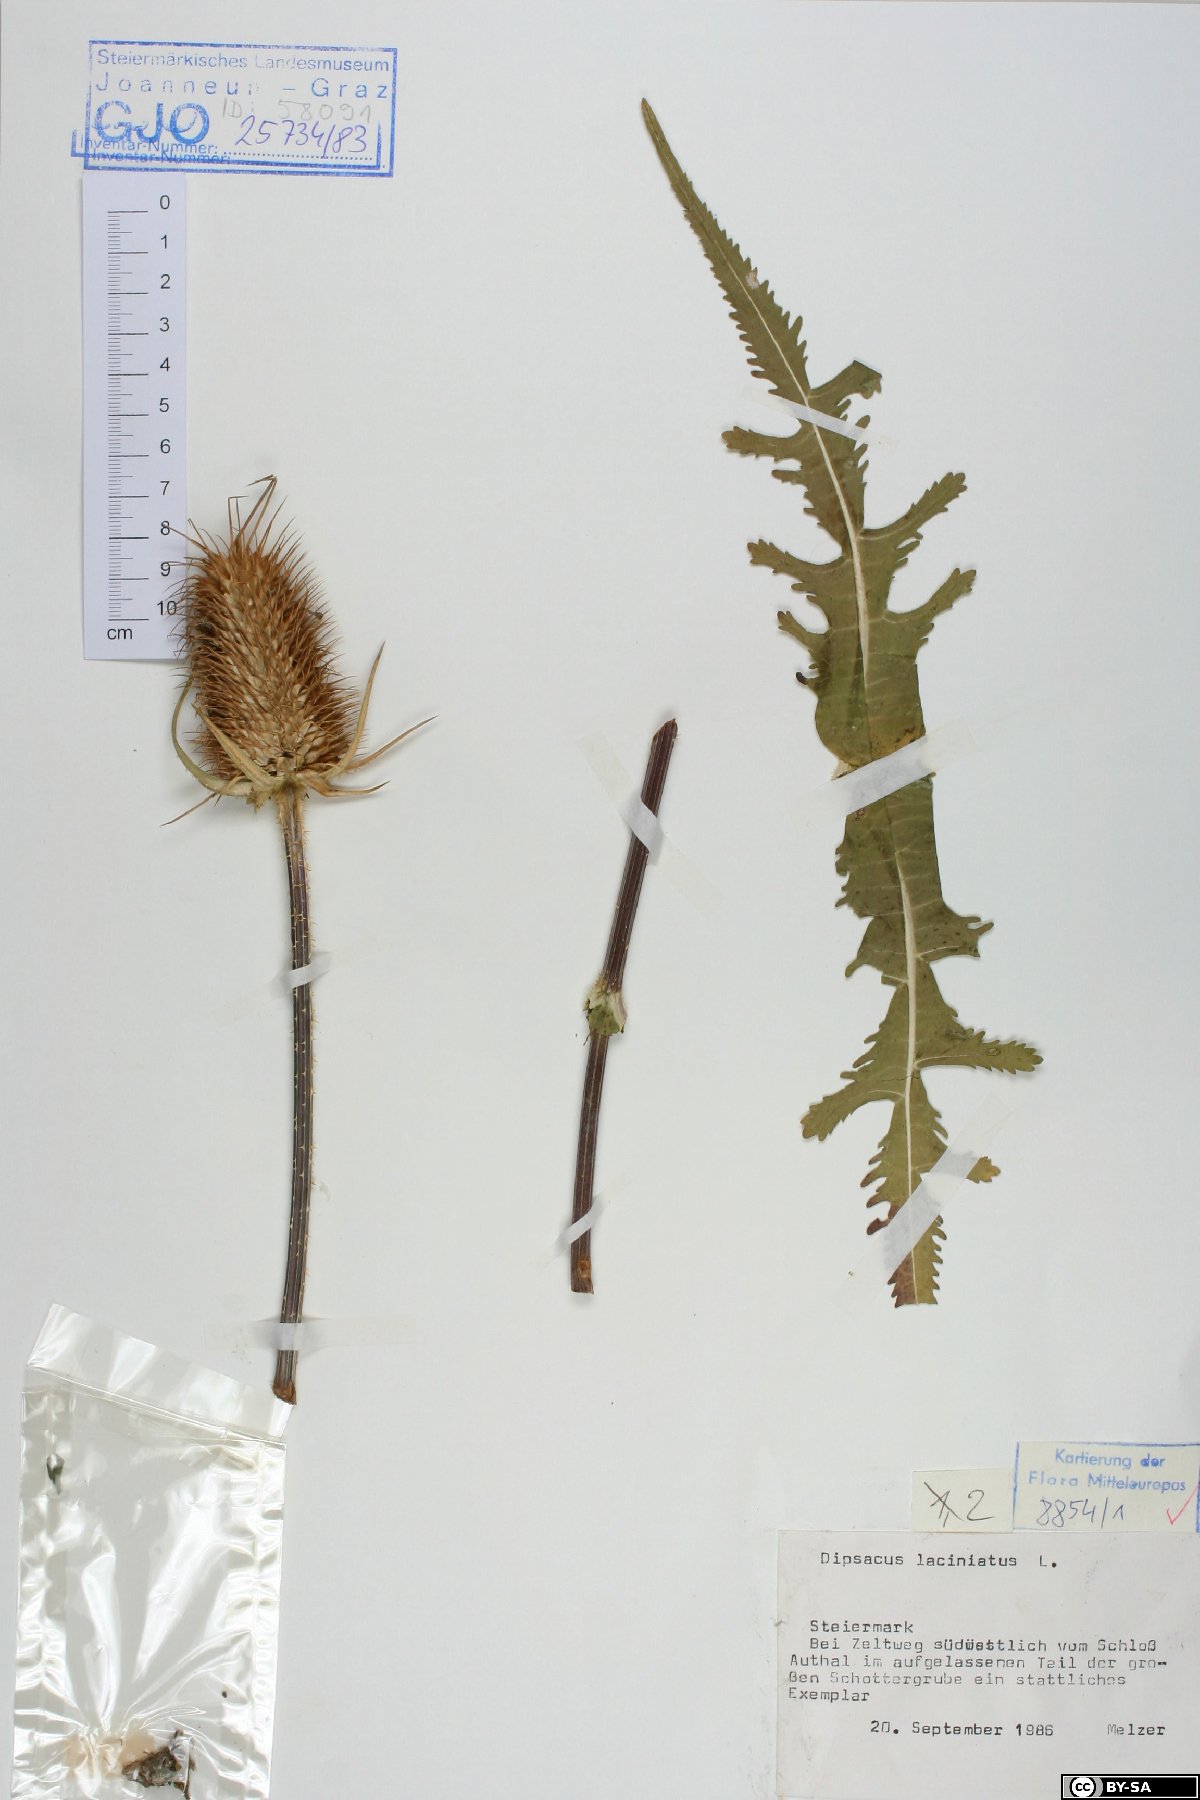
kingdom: Plantae
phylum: Tracheophyta
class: Magnoliopsida
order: Dipsacales
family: Caprifoliaceae
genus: Dipsacus
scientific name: Dipsacus laciniatus
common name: Cut-leaved teasel
